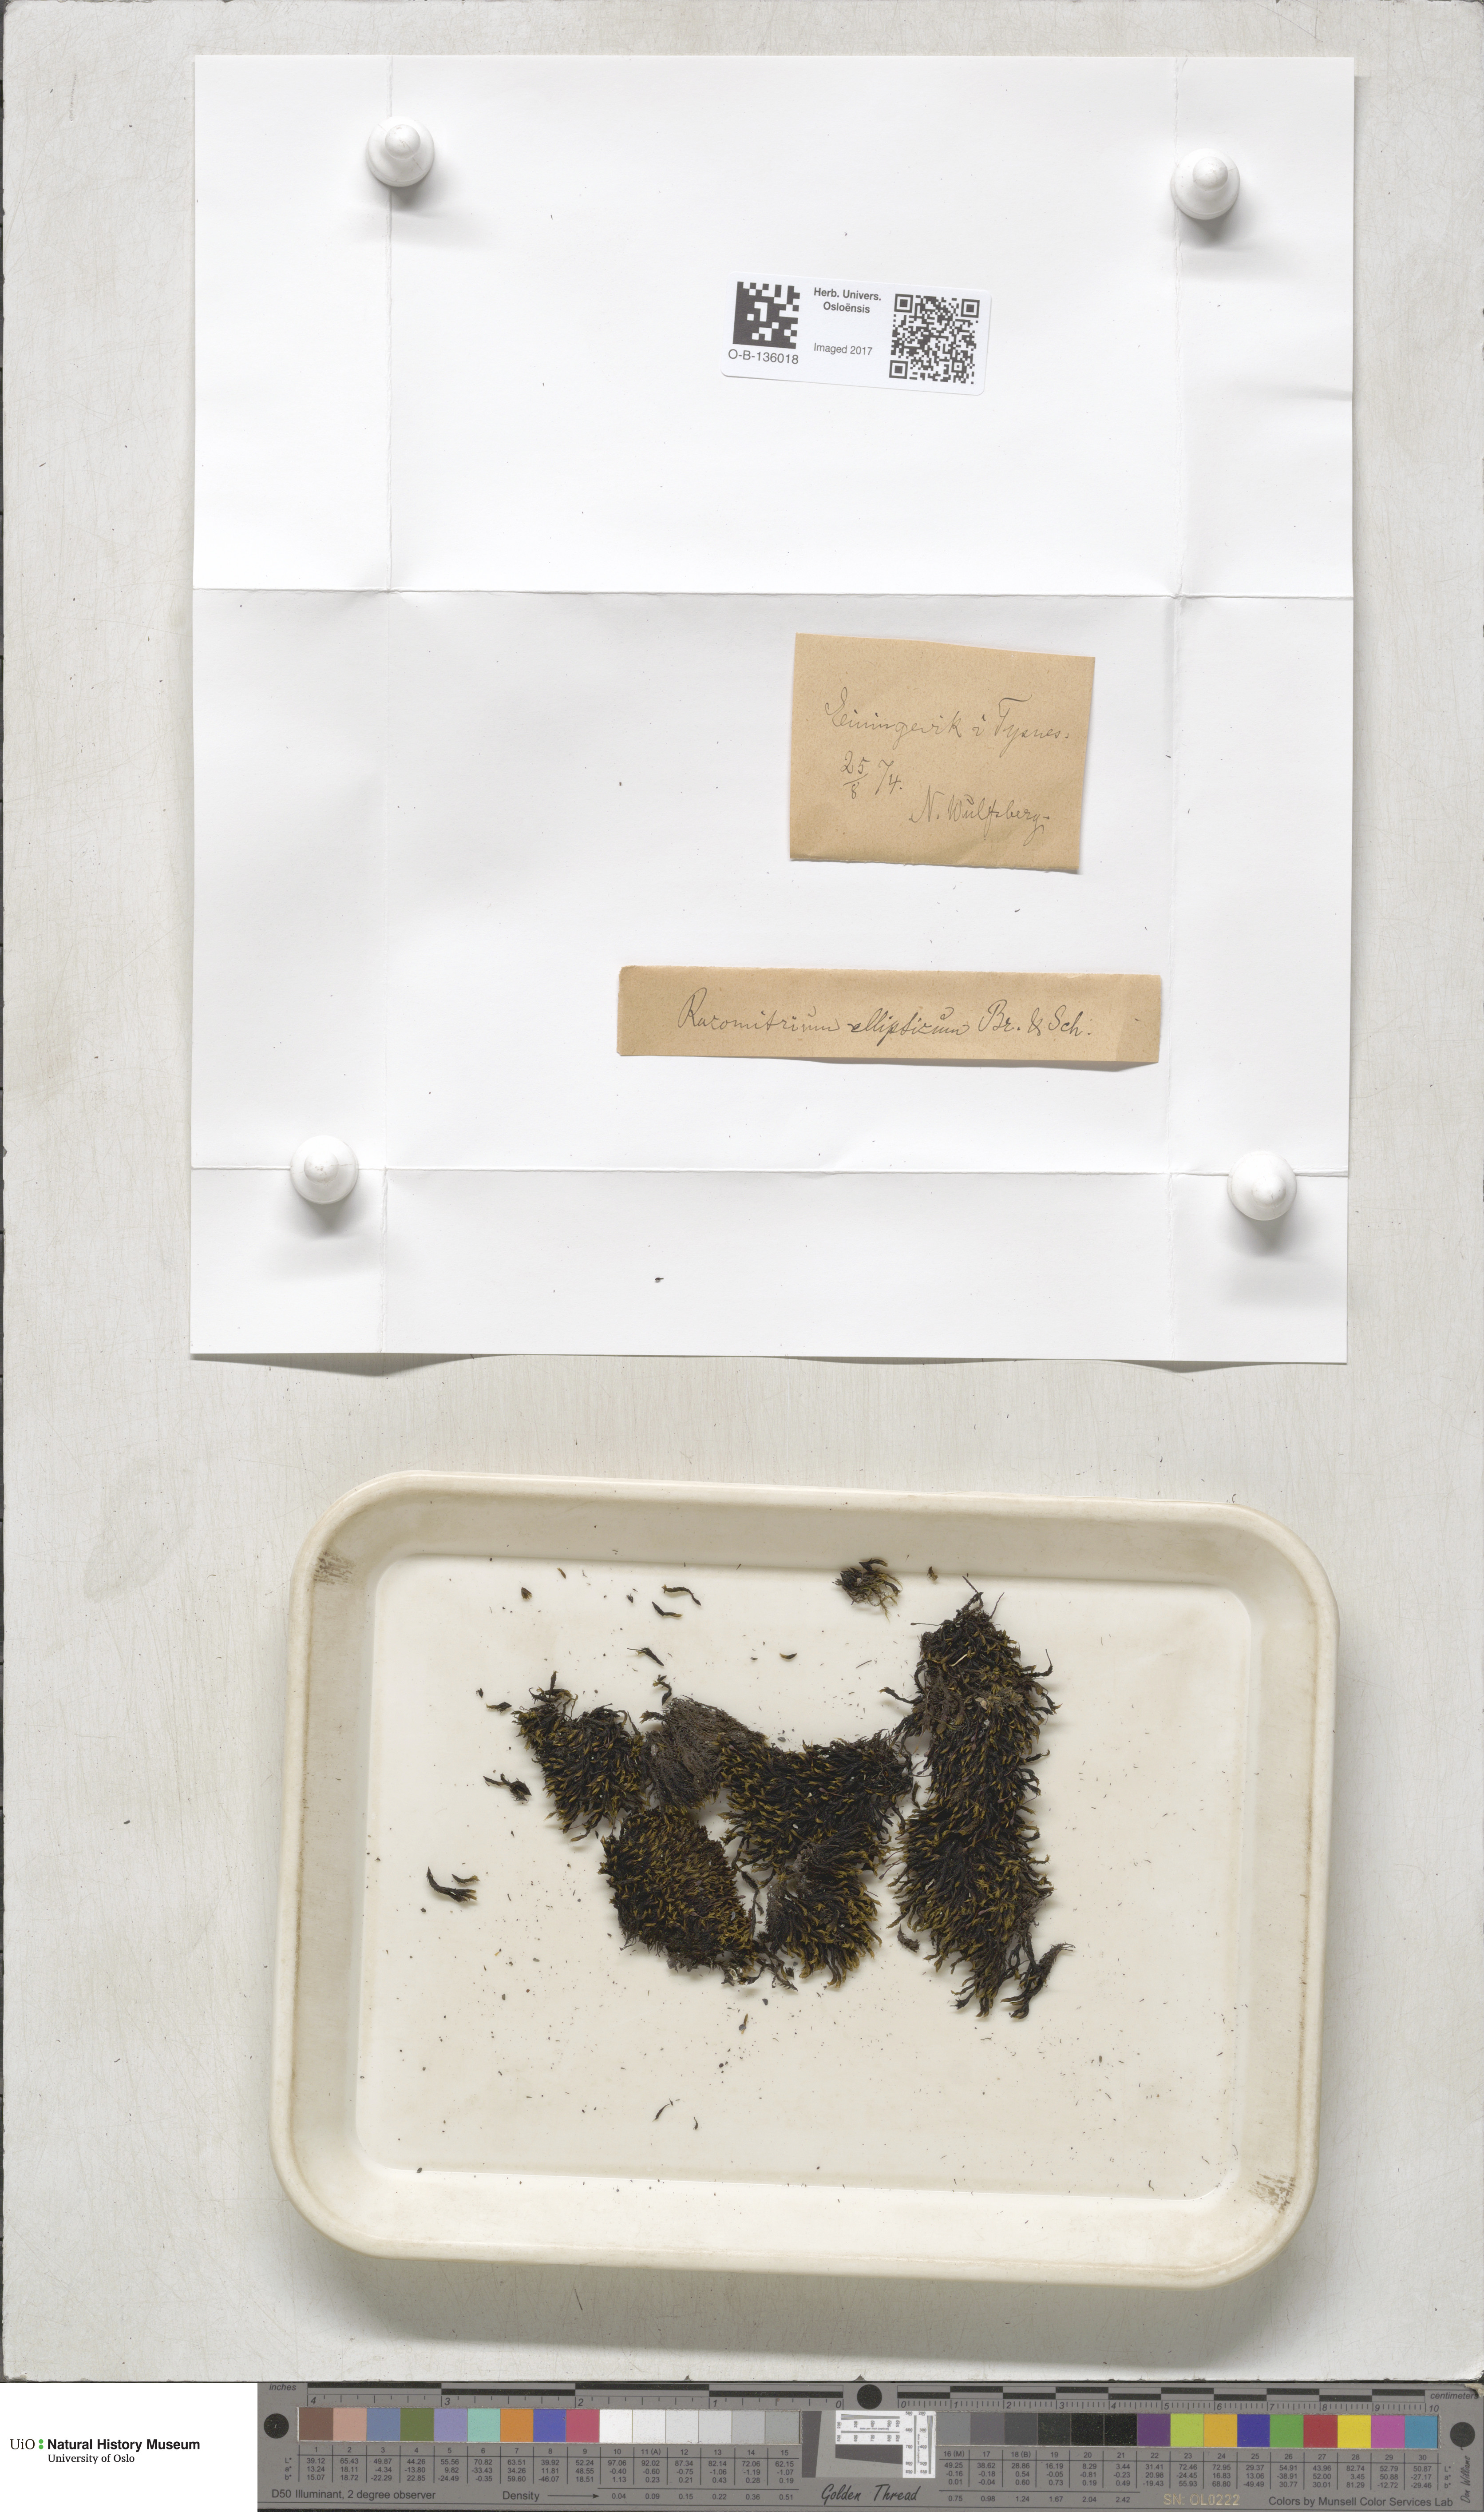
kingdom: Plantae
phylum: Bryophyta
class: Bryopsida
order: Grimmiales
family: Grimmiaceae
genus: Bucklandiella
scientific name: Bucklandiella elliptica
